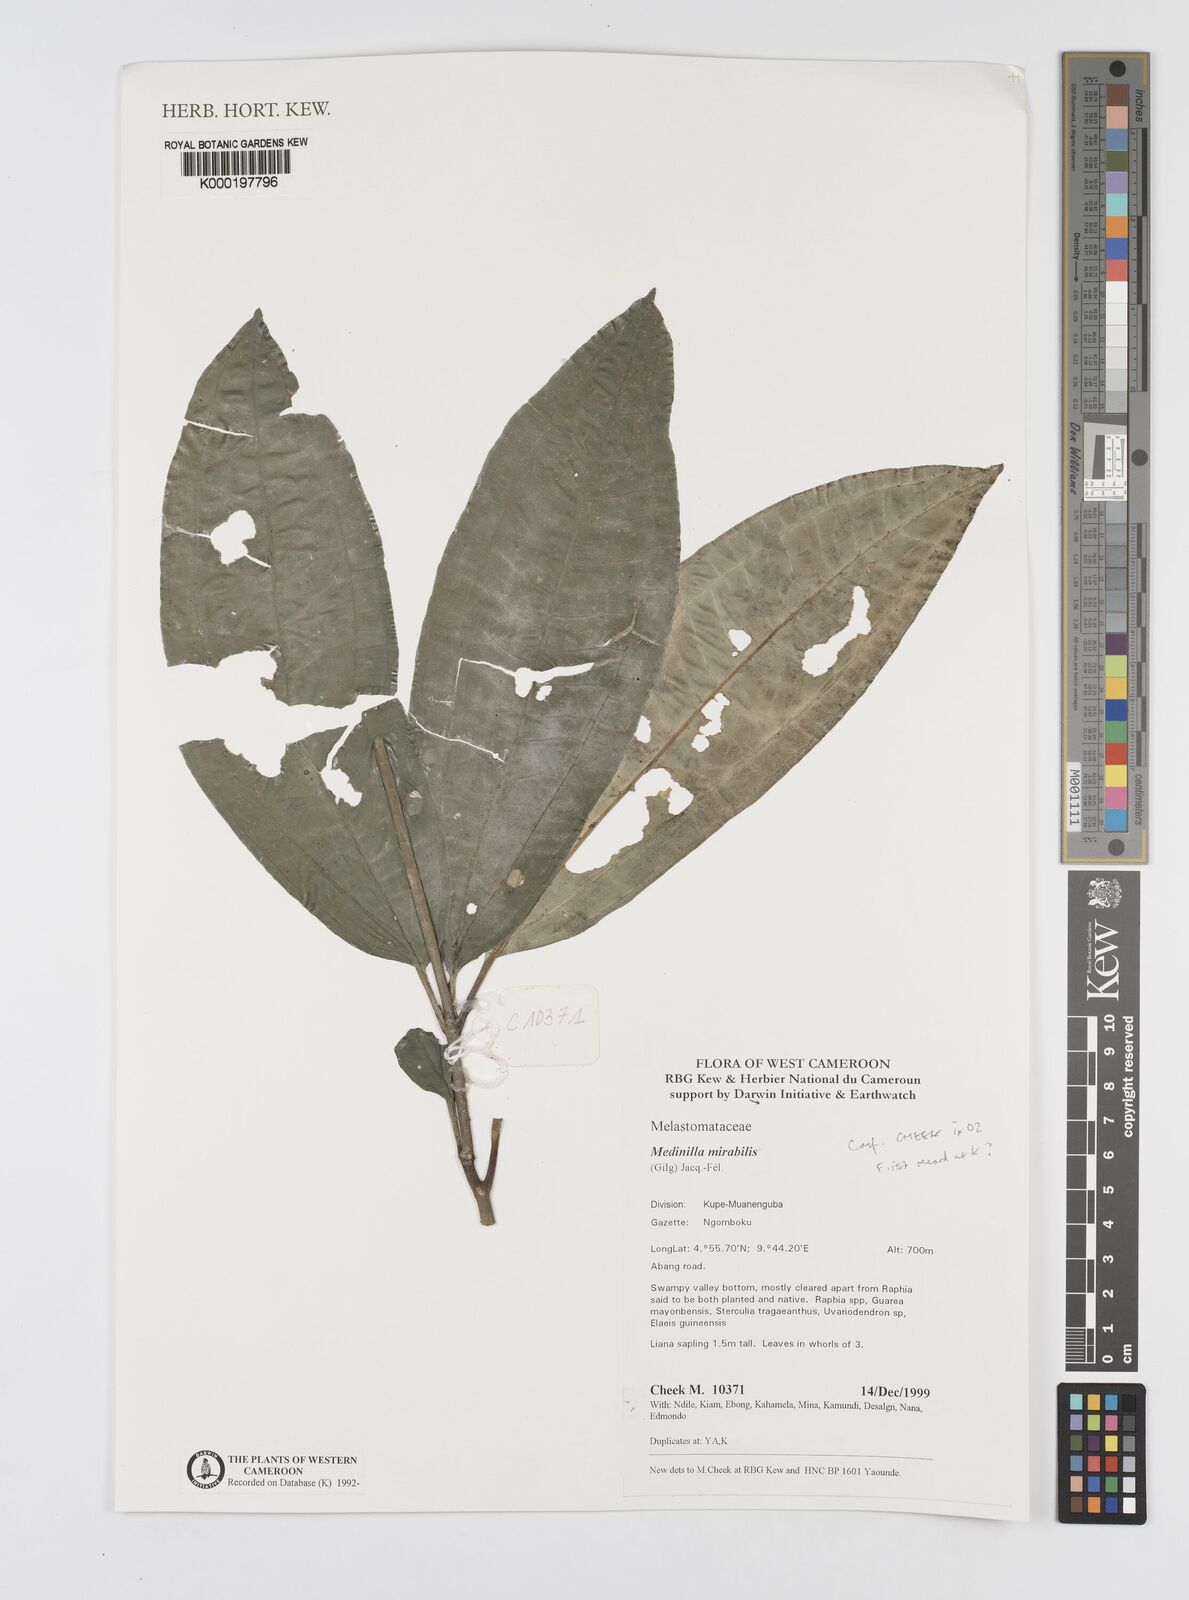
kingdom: Plantae
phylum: Tracheophyta
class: Magnoliopsida
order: Myrtales
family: Melastomataceae
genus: Medinilla
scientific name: Medinilla
